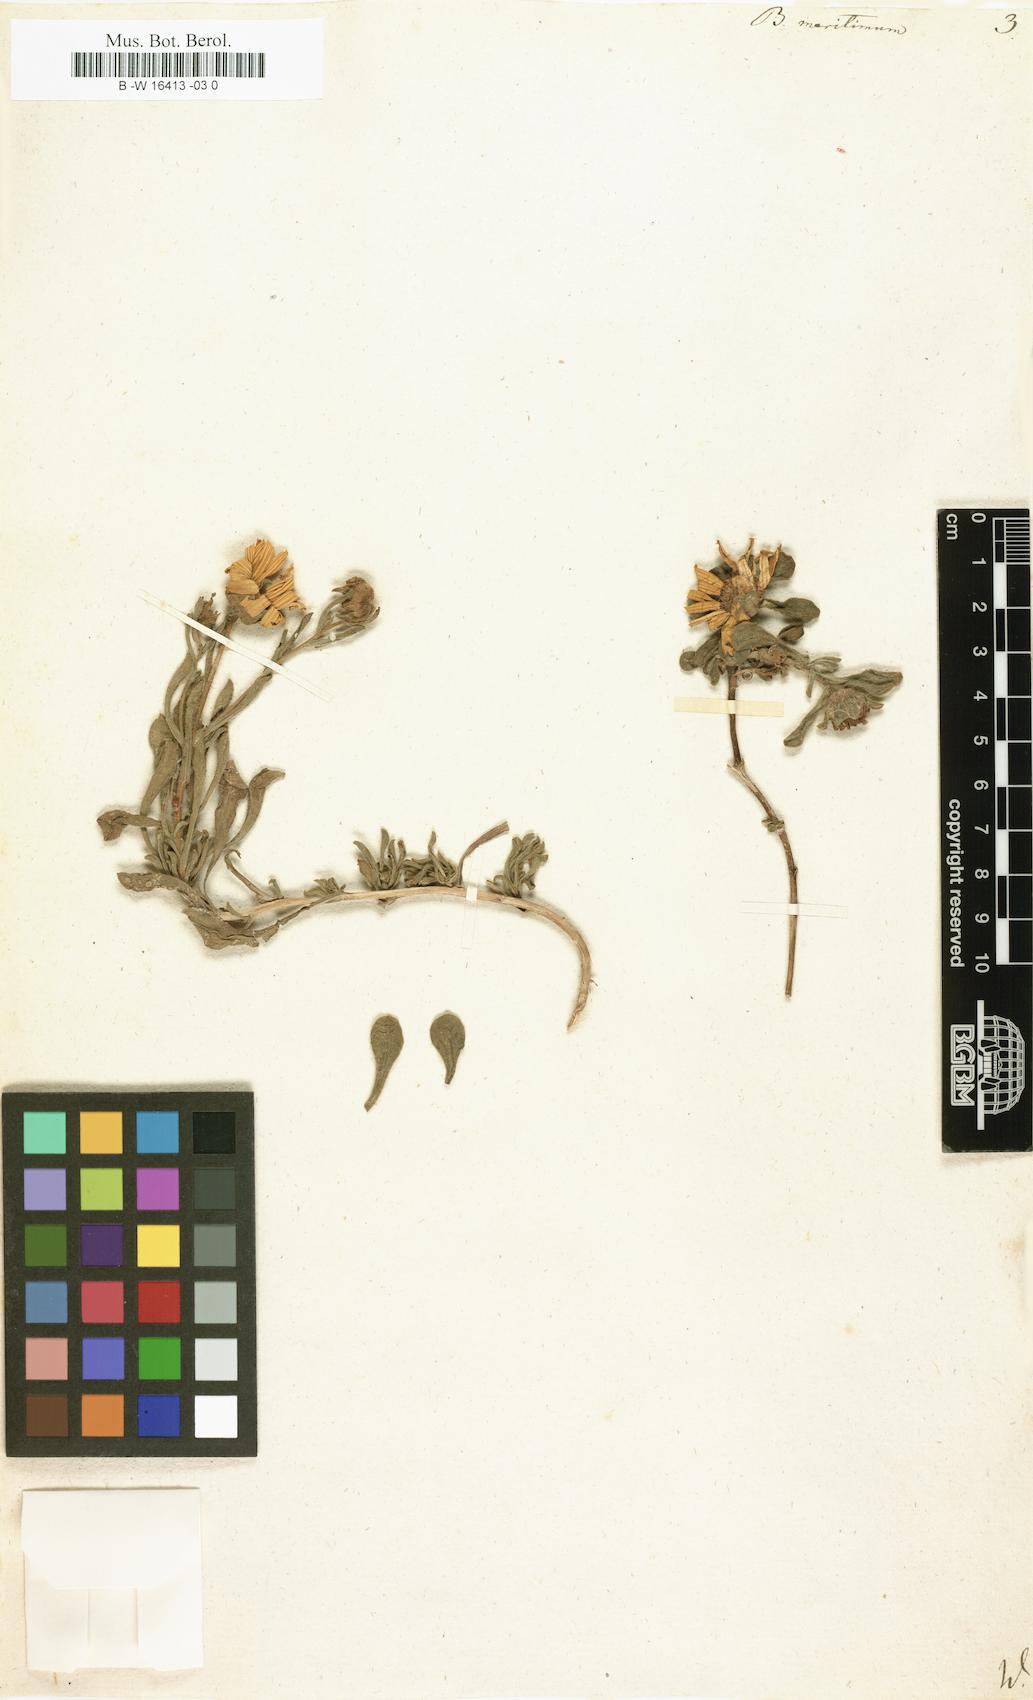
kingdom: Plantae
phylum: Tracheophyta
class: Magnoliopsida
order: Asterales
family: Asteraceae
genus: Pallenis
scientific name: Pallenis maritima
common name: Golden coin daisy
